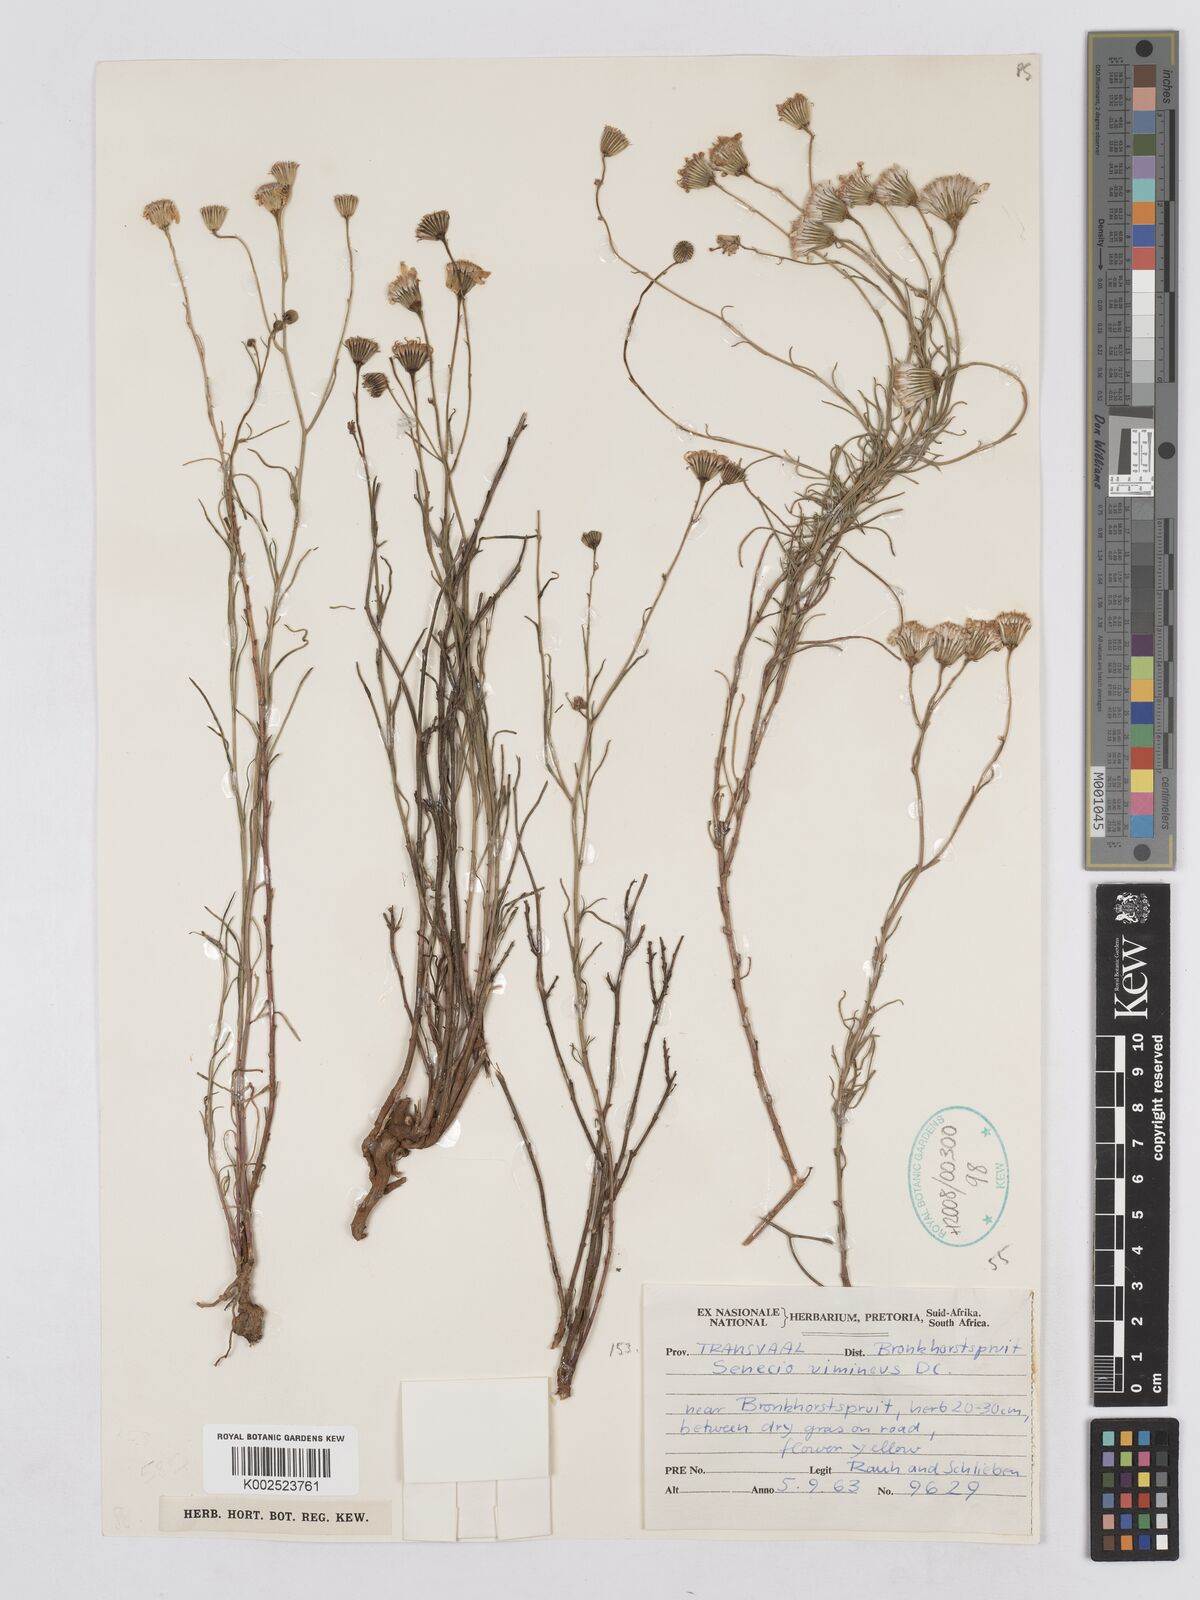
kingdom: Plantae
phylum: Tracheophyta
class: Magnoliopsida
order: Asterales
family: Asteraceae
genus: Senecio
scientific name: Senecio vimineus
